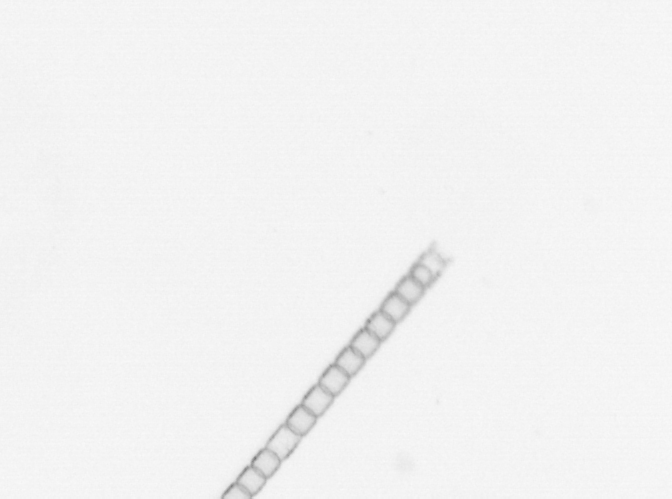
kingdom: Chromista
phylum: Ochrophyta
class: Bacillariophyceae
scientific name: Bacillariophyceae
